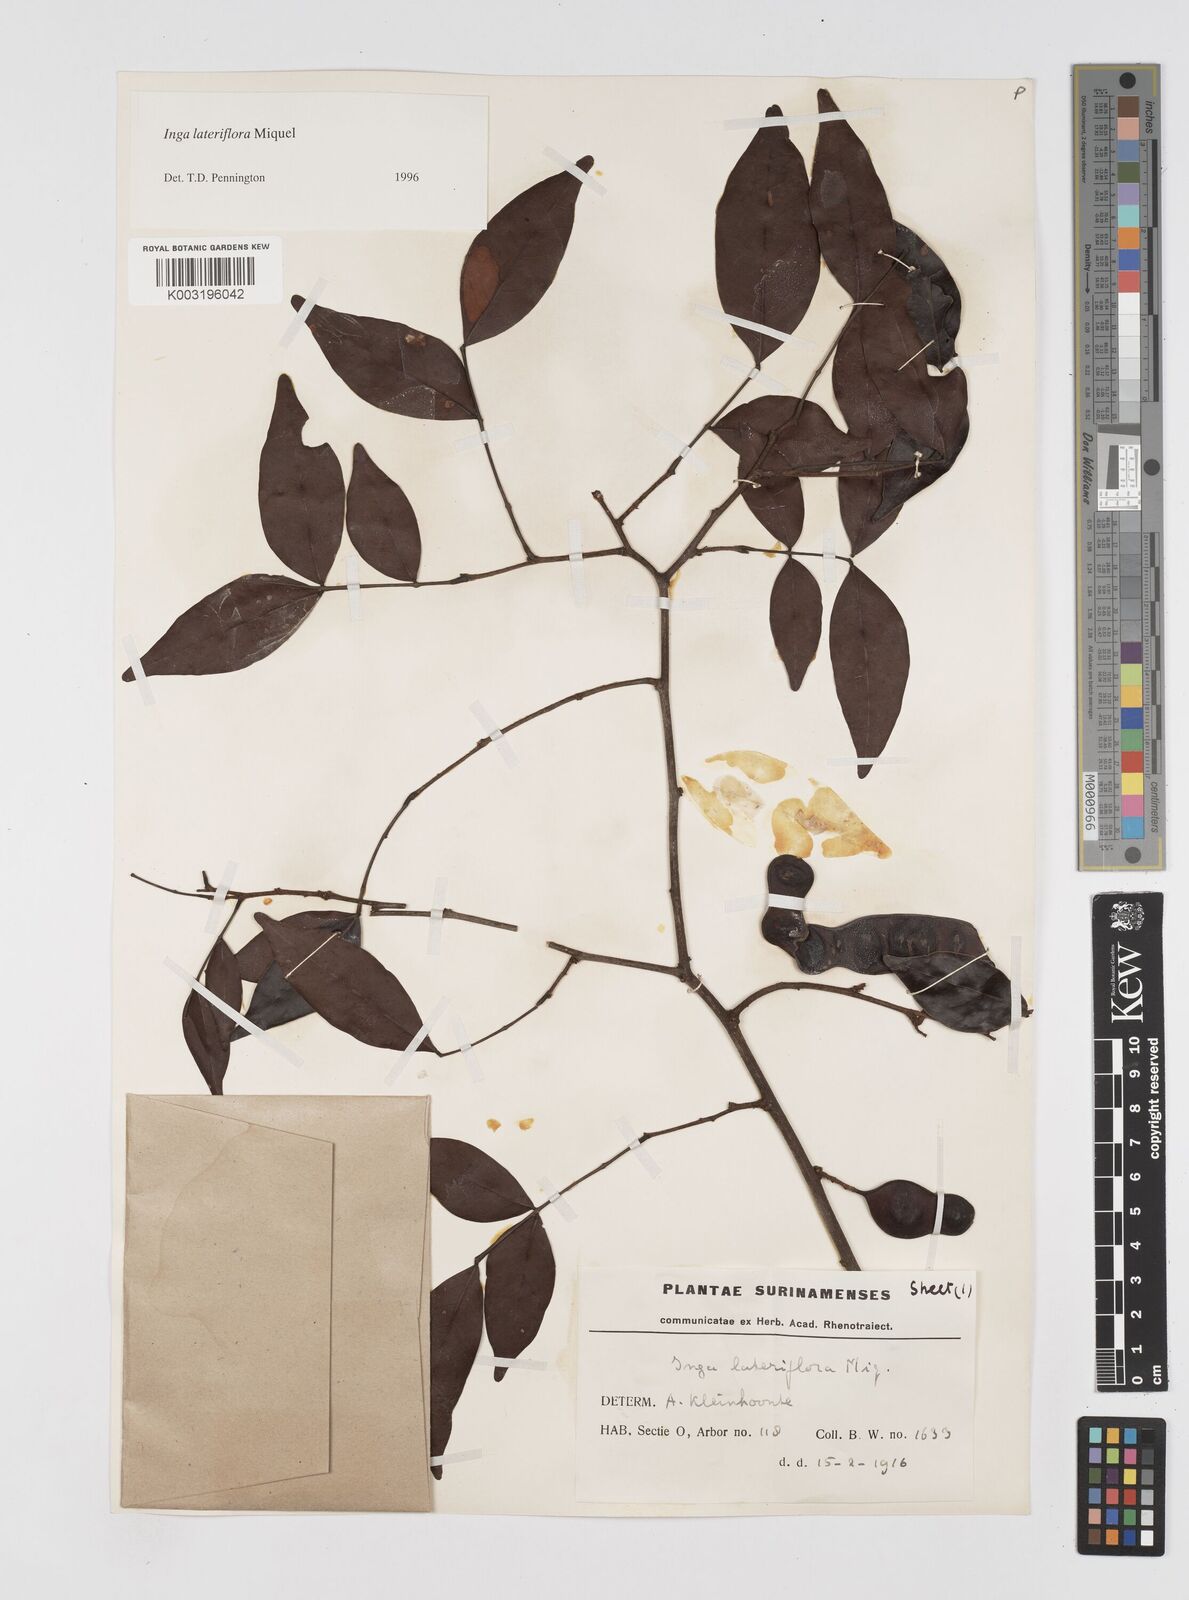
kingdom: Plantae
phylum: Tracheophyta
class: Magnoliopsida
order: Fabales
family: Fabaceae
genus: Inga
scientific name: Inga lateriflora
